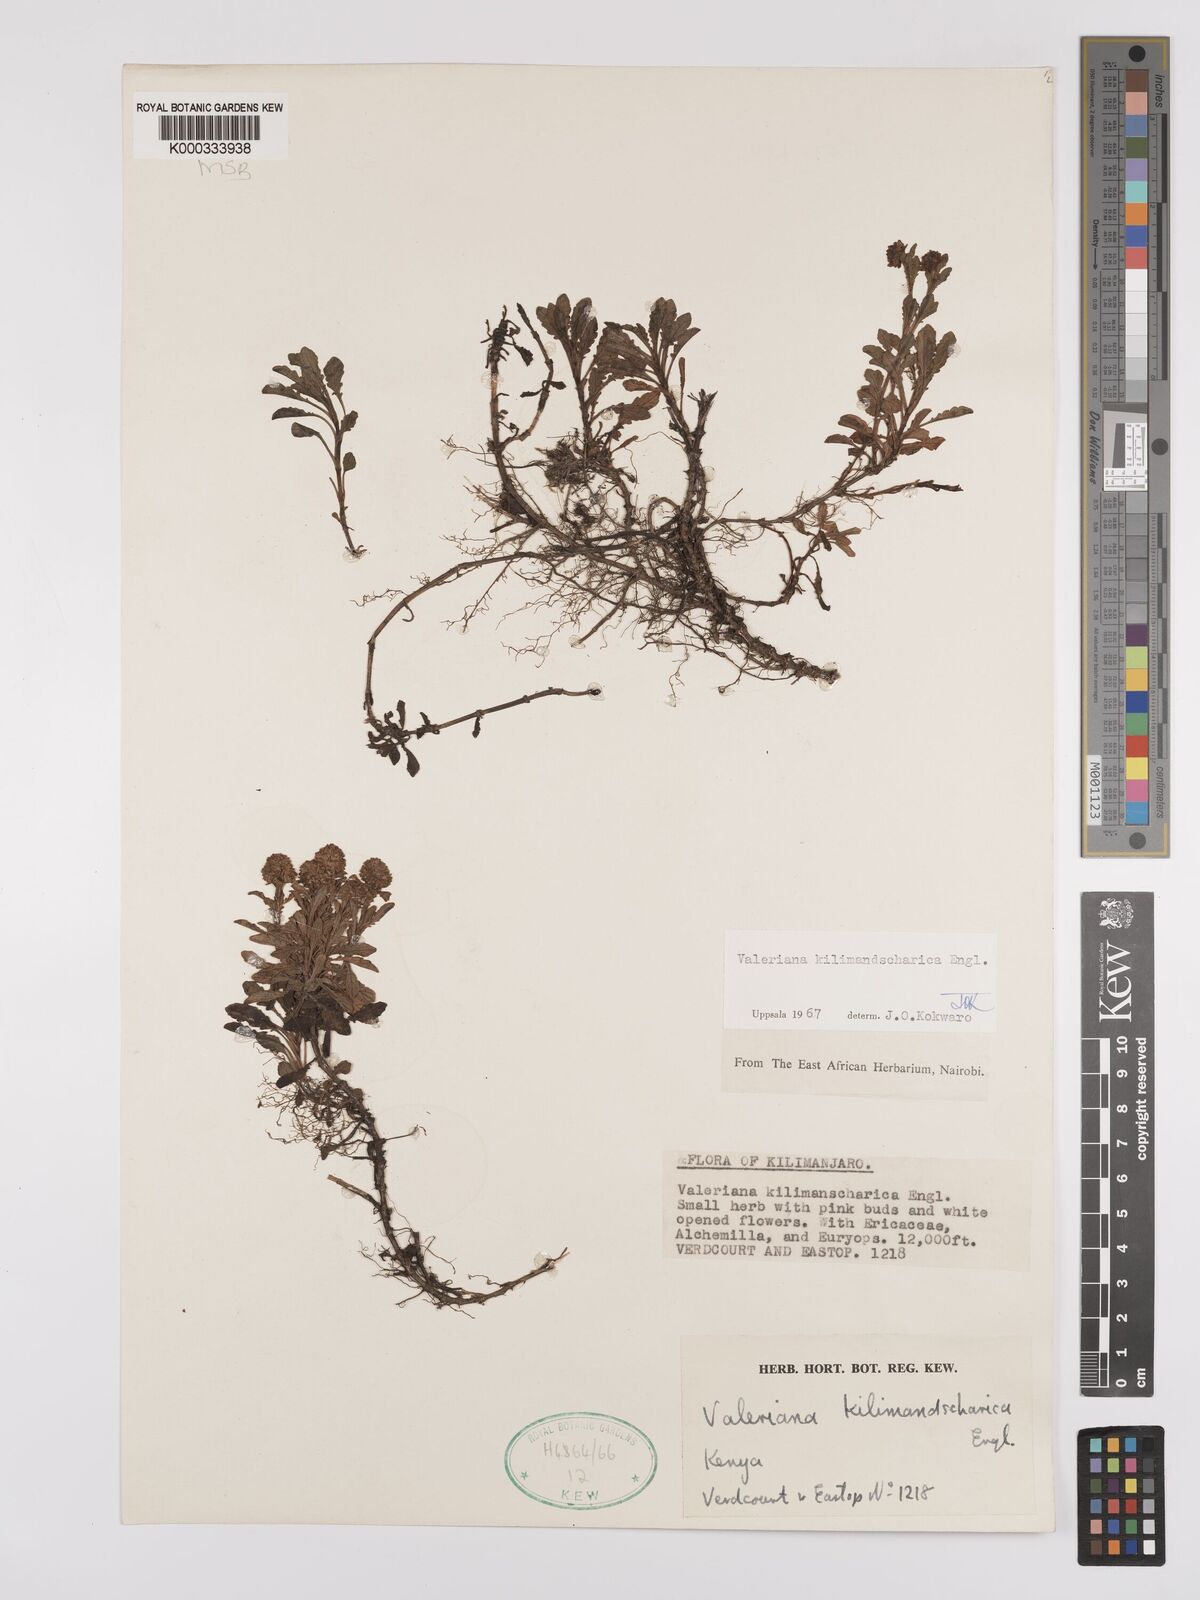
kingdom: Plantae
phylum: Tracheophyta
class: Magnoliopsida
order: Dipsacales
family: Caprifoliaceae
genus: Valeriana
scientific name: Valeriana kilimandscharica
